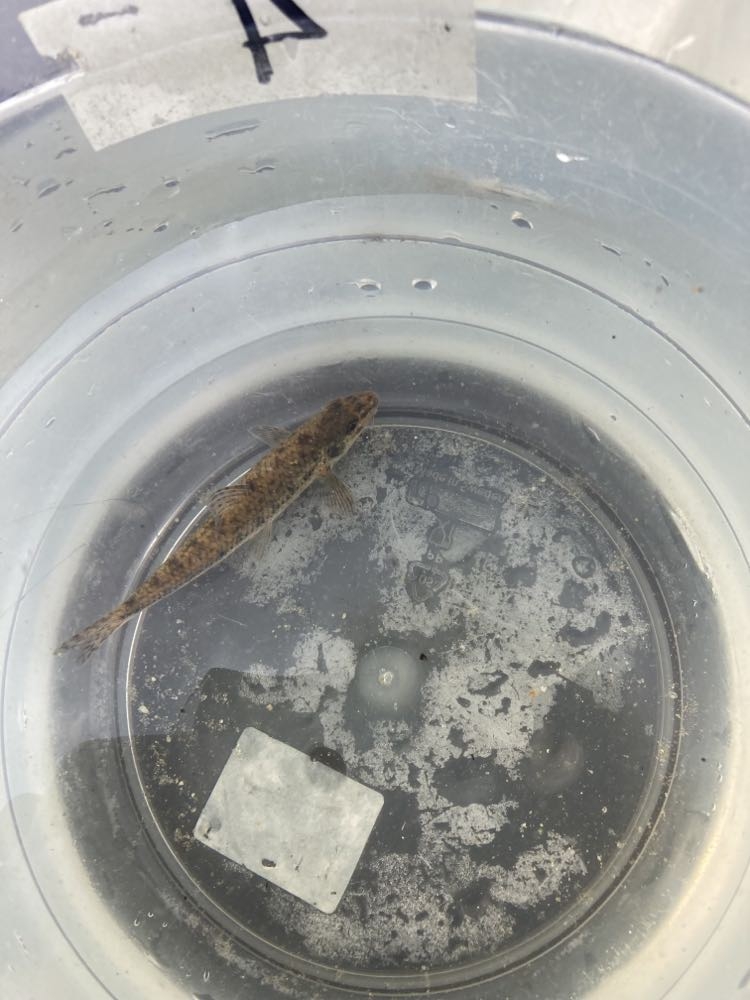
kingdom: Animalia
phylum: Chordata
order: Cypriniformes
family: Cyprinidae
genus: Gobio
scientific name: Gobio gobio
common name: Grundling
